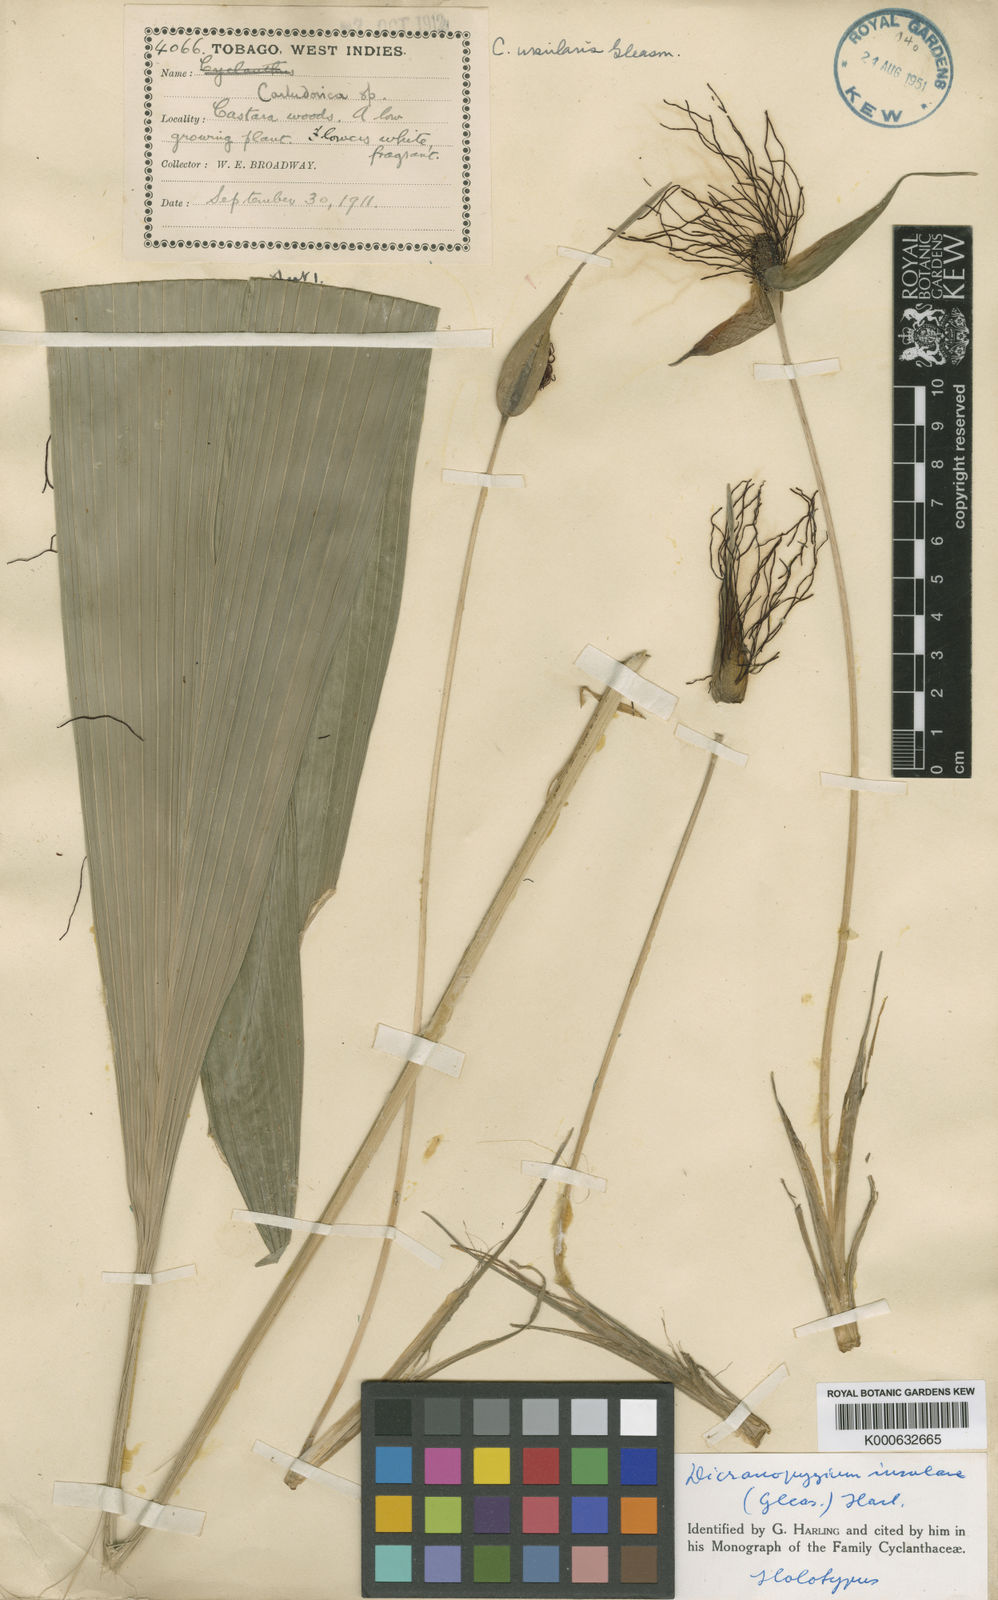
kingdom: Plantae
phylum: Tracheophyta
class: Liliopsida
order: Pandanales
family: Cyclanthaceae
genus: Dicranopygium
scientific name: Dicranopygium insulare
